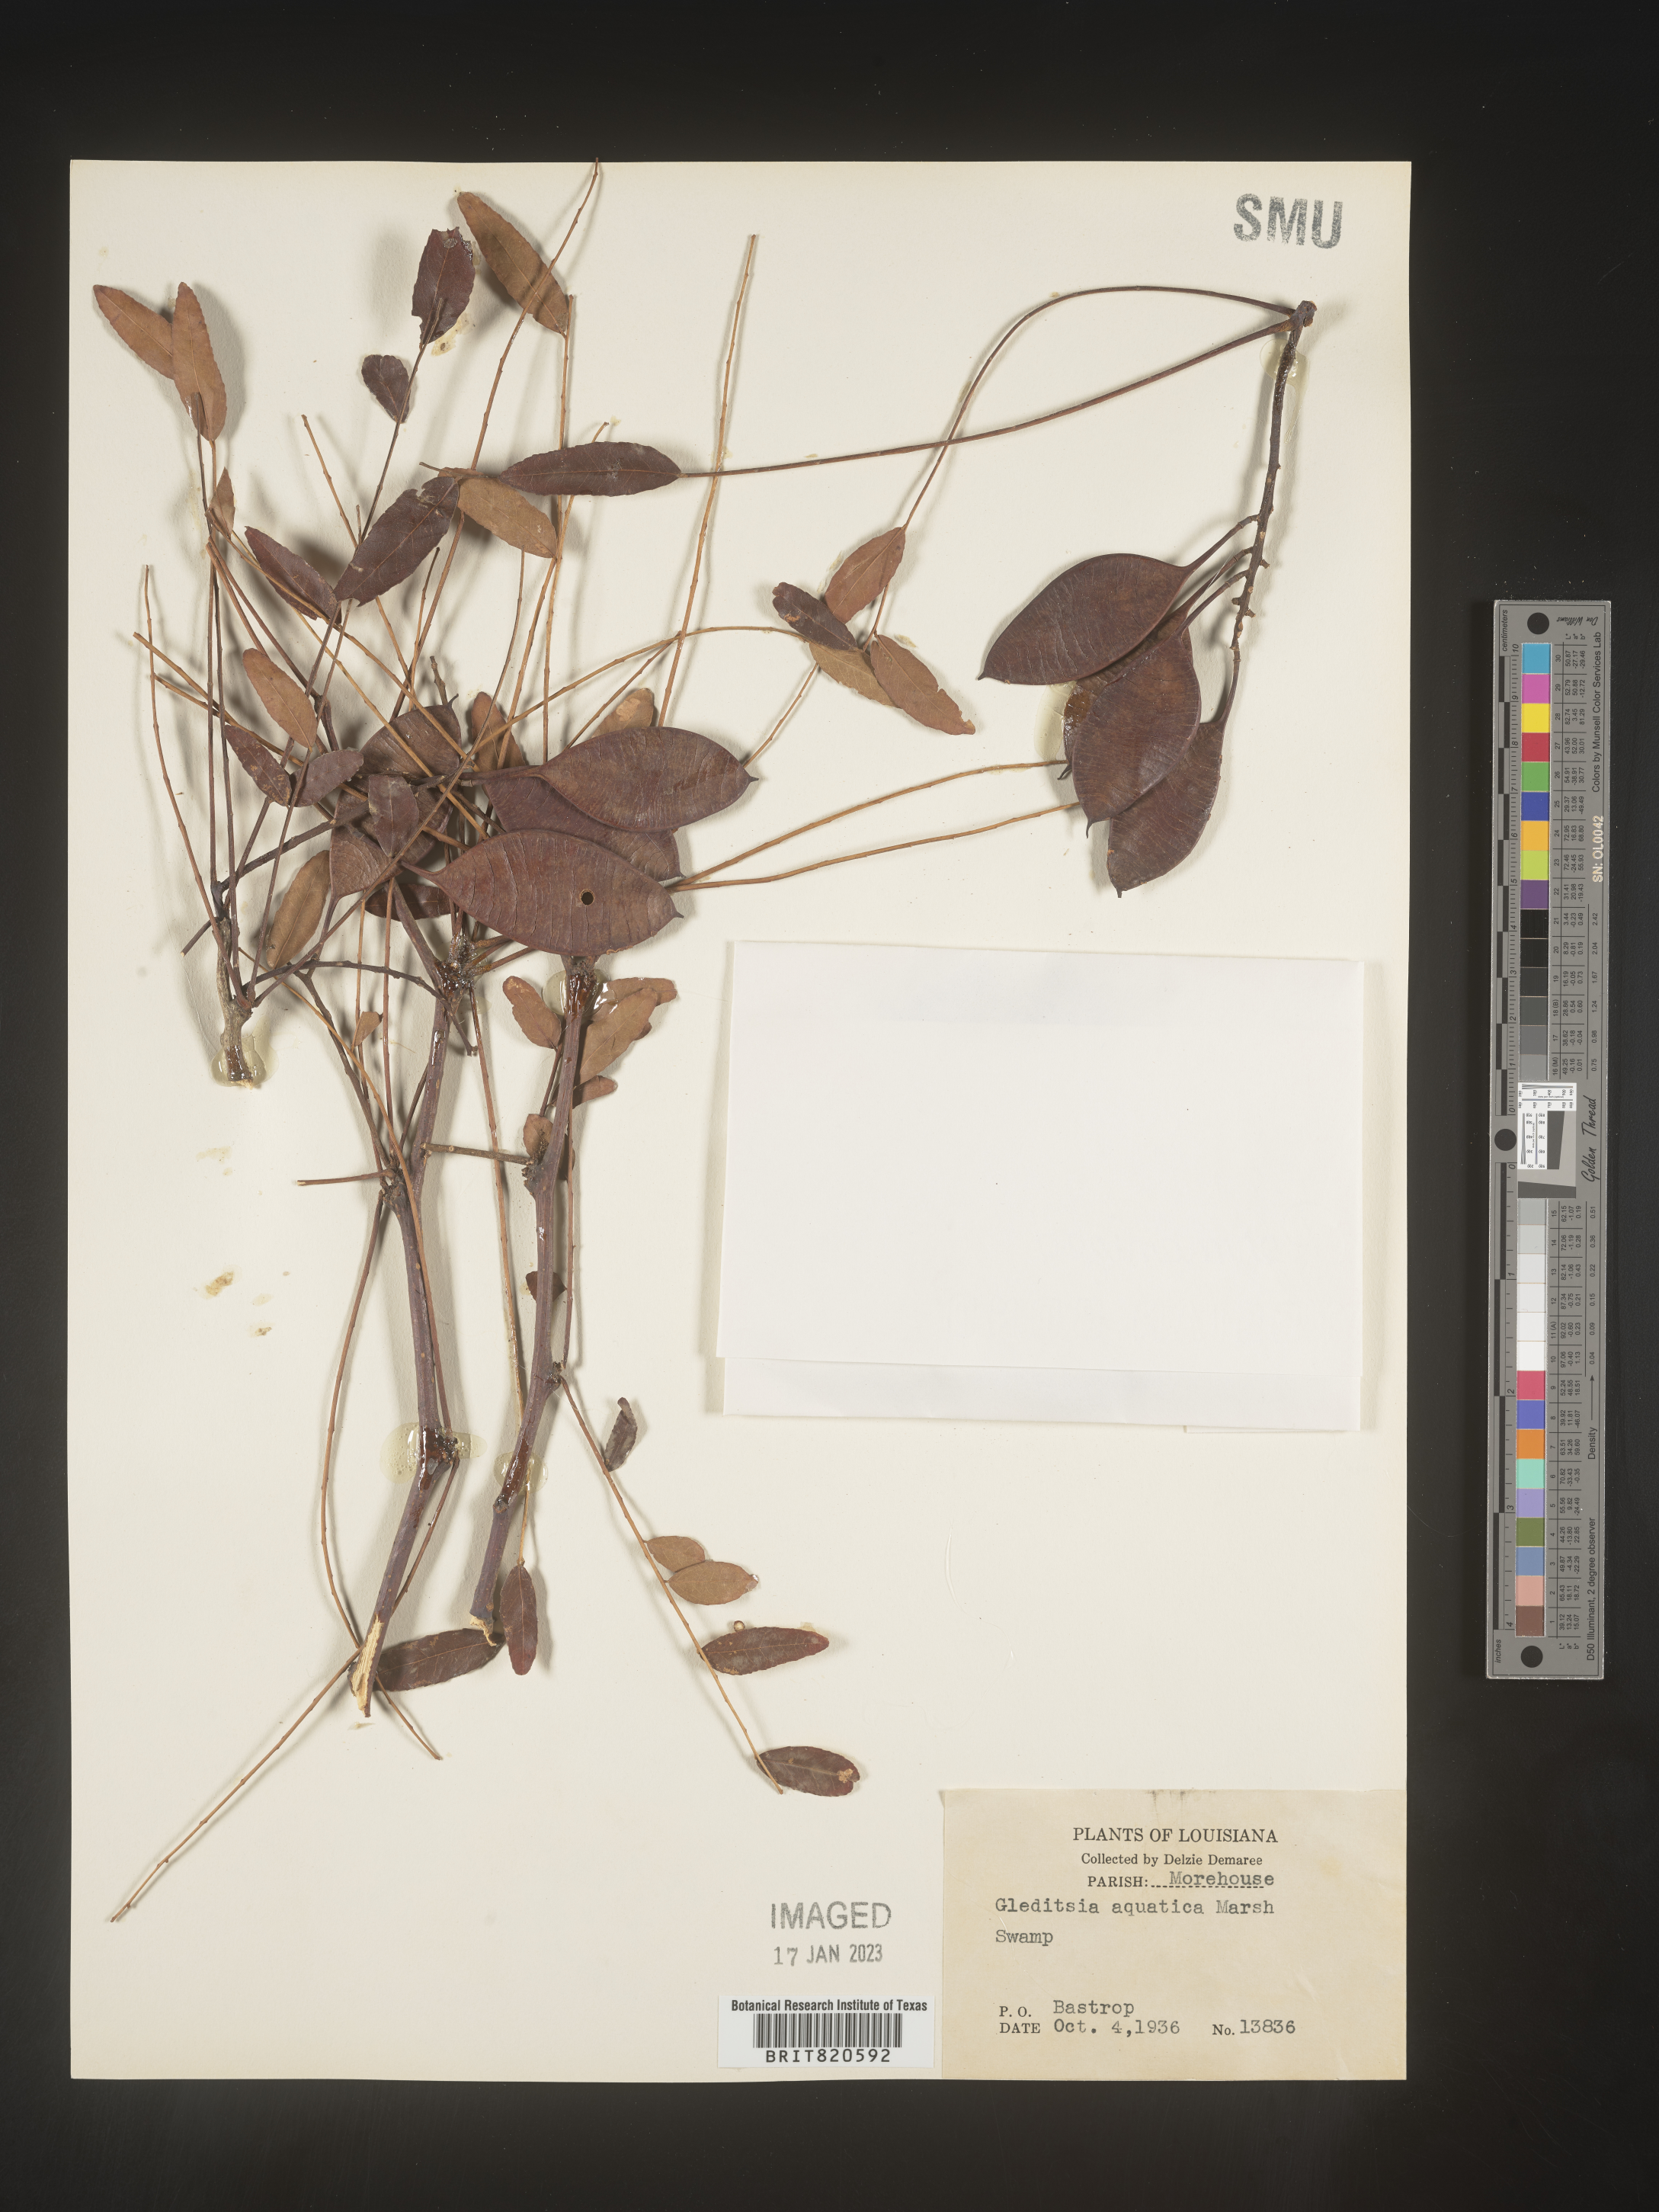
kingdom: Plantae
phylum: Tracheophyta
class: Magnoliopsida
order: Fabales
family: Fabaceae
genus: Gleditsia
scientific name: Gleditsia aquatica
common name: Swamp-locust
